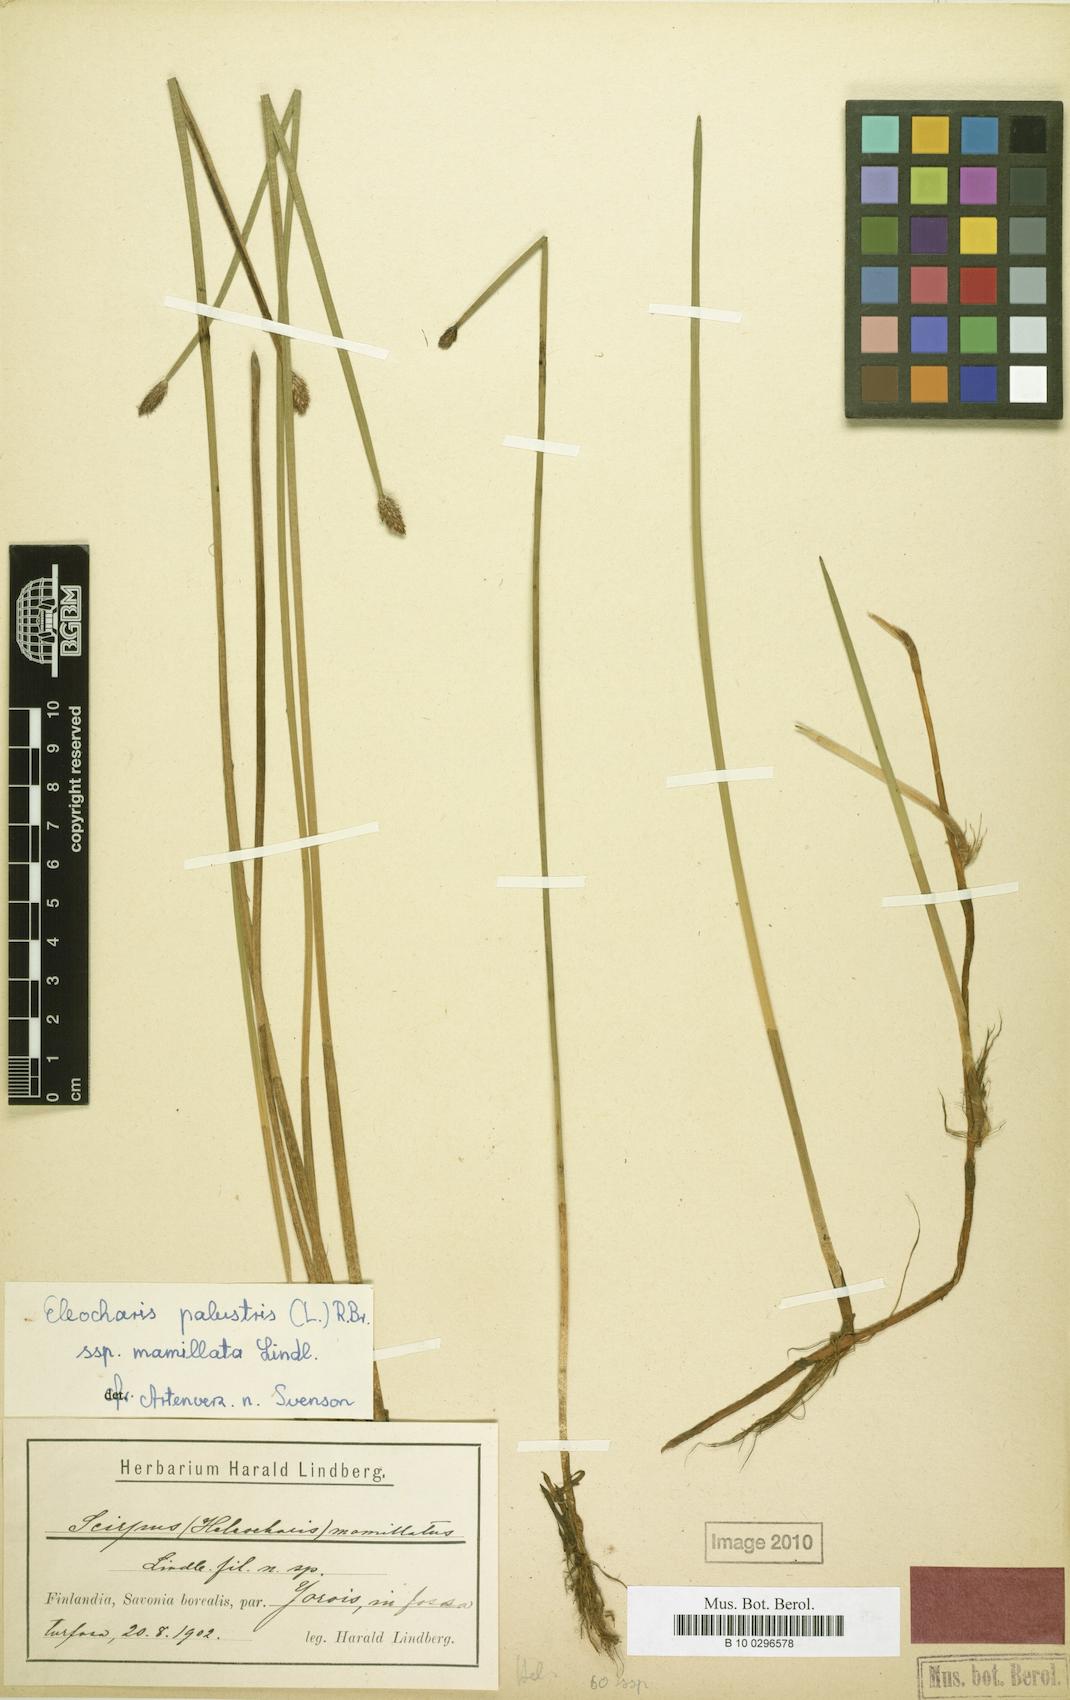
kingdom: Plantae
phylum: Tracheophyta
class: Liliopsida
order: Poales
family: Cyperaceae
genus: Eleocharis
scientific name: Eleocharis mamillata
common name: Northern spike-rush
